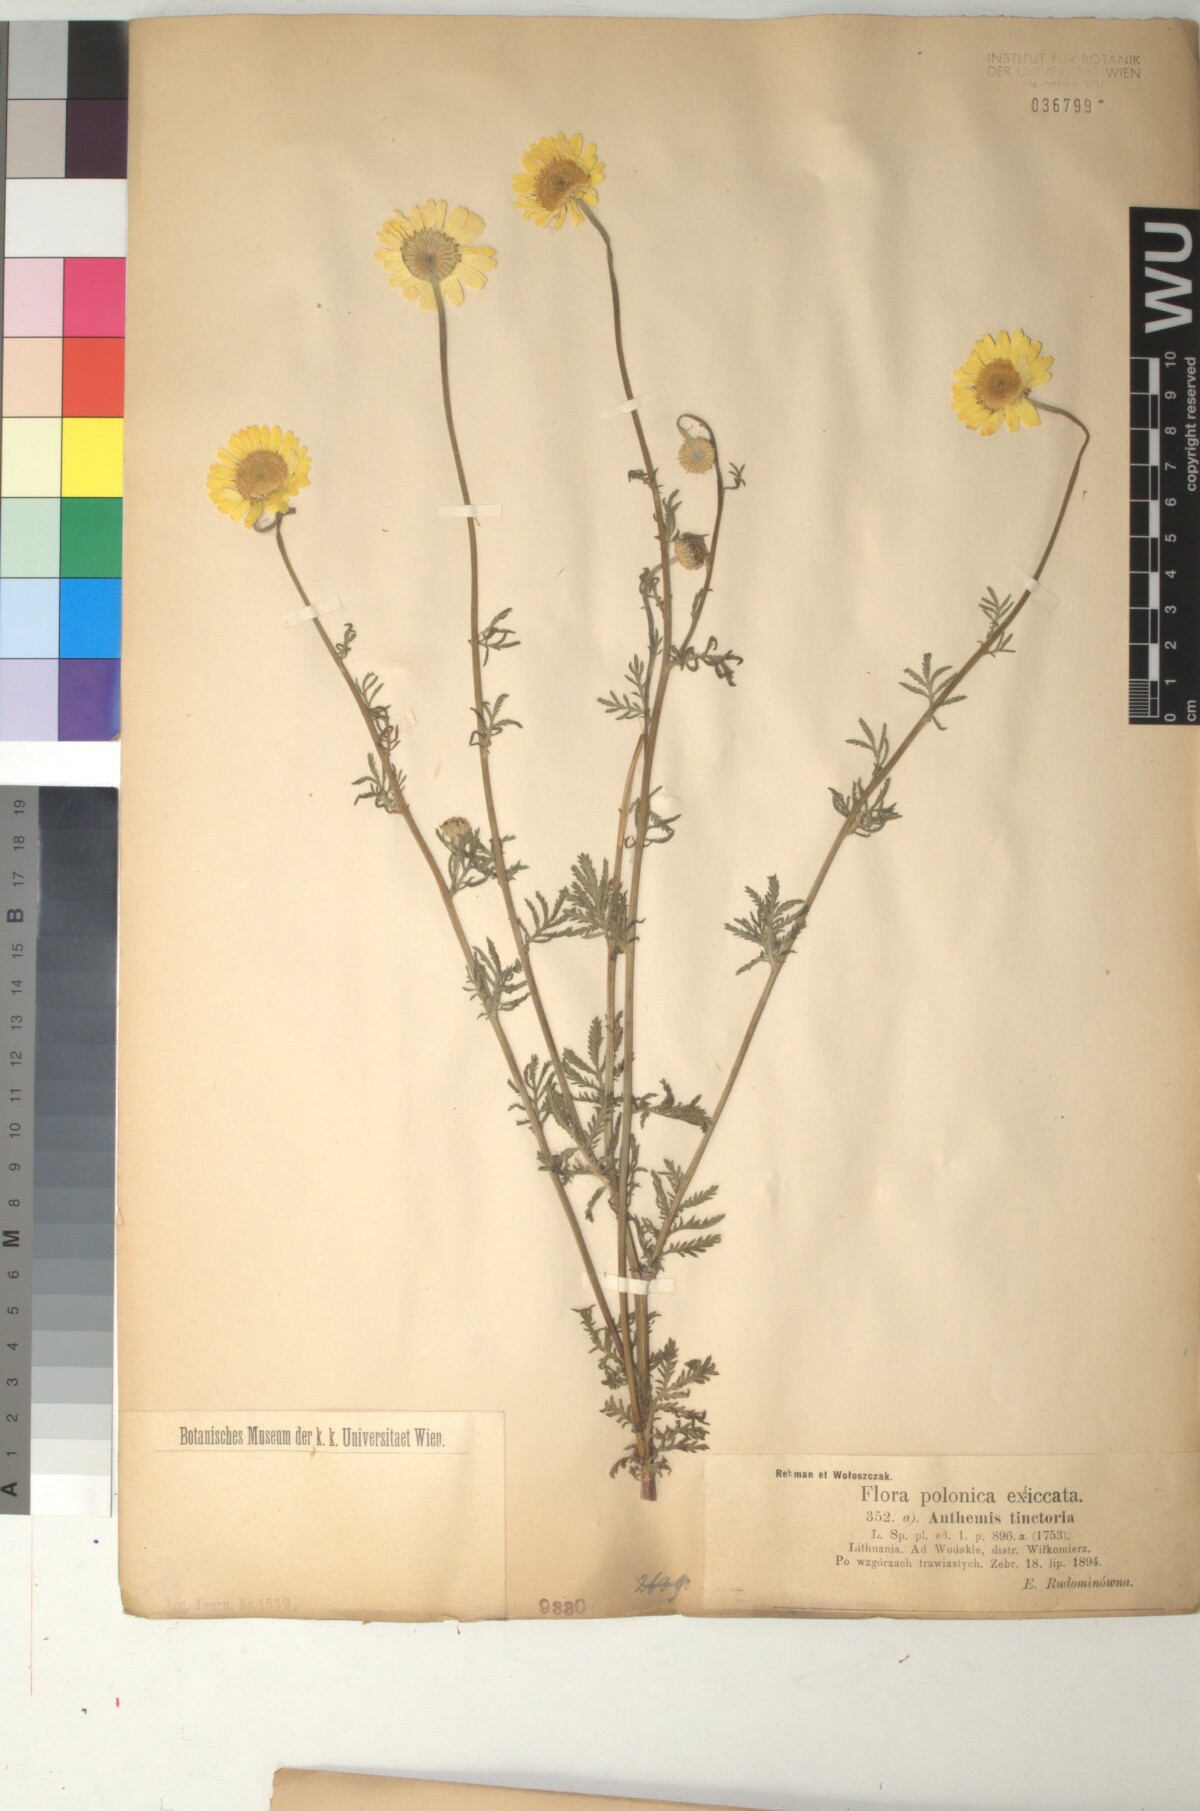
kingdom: Plantae
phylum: Tracheophyta
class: Magnoliopsida
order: Asterales
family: Asteraceae
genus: Cota
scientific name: Cota tinctoria
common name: Golden chamomile
